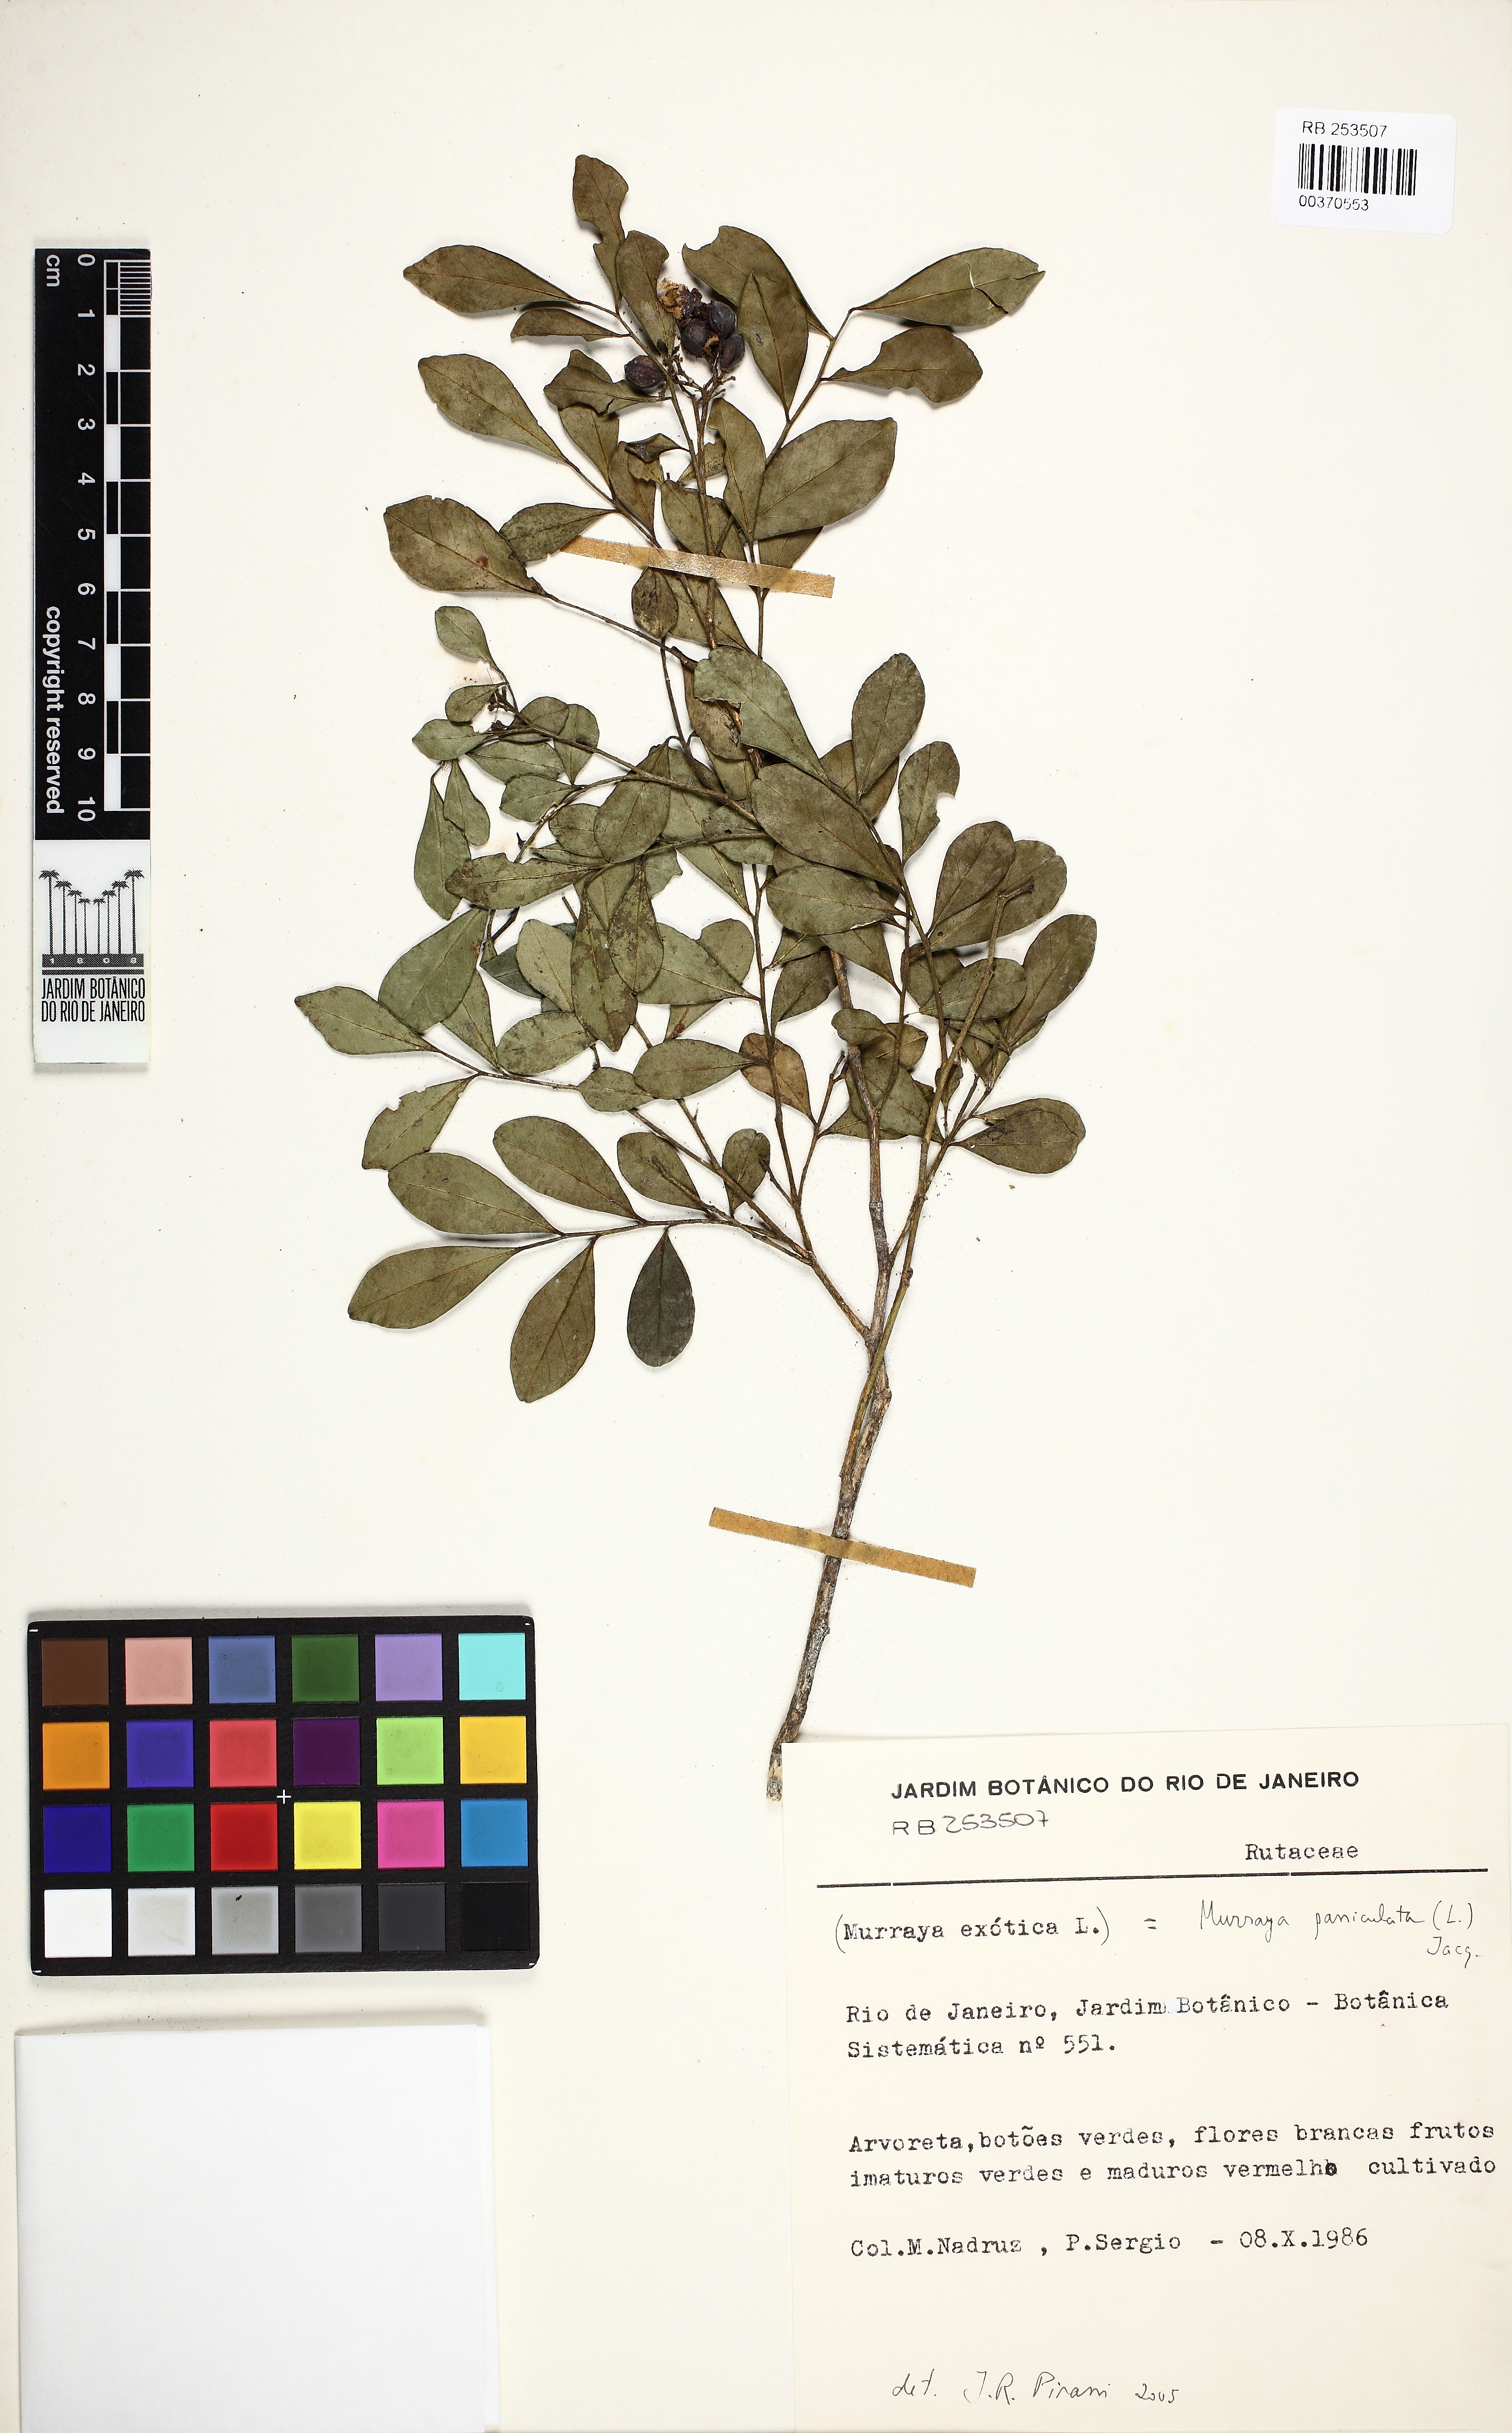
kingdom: Plantae
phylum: Tracheophyta
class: Magnoliopsida
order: Sapindales
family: Rutaceae
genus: Murraya
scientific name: Murraya paniculata
